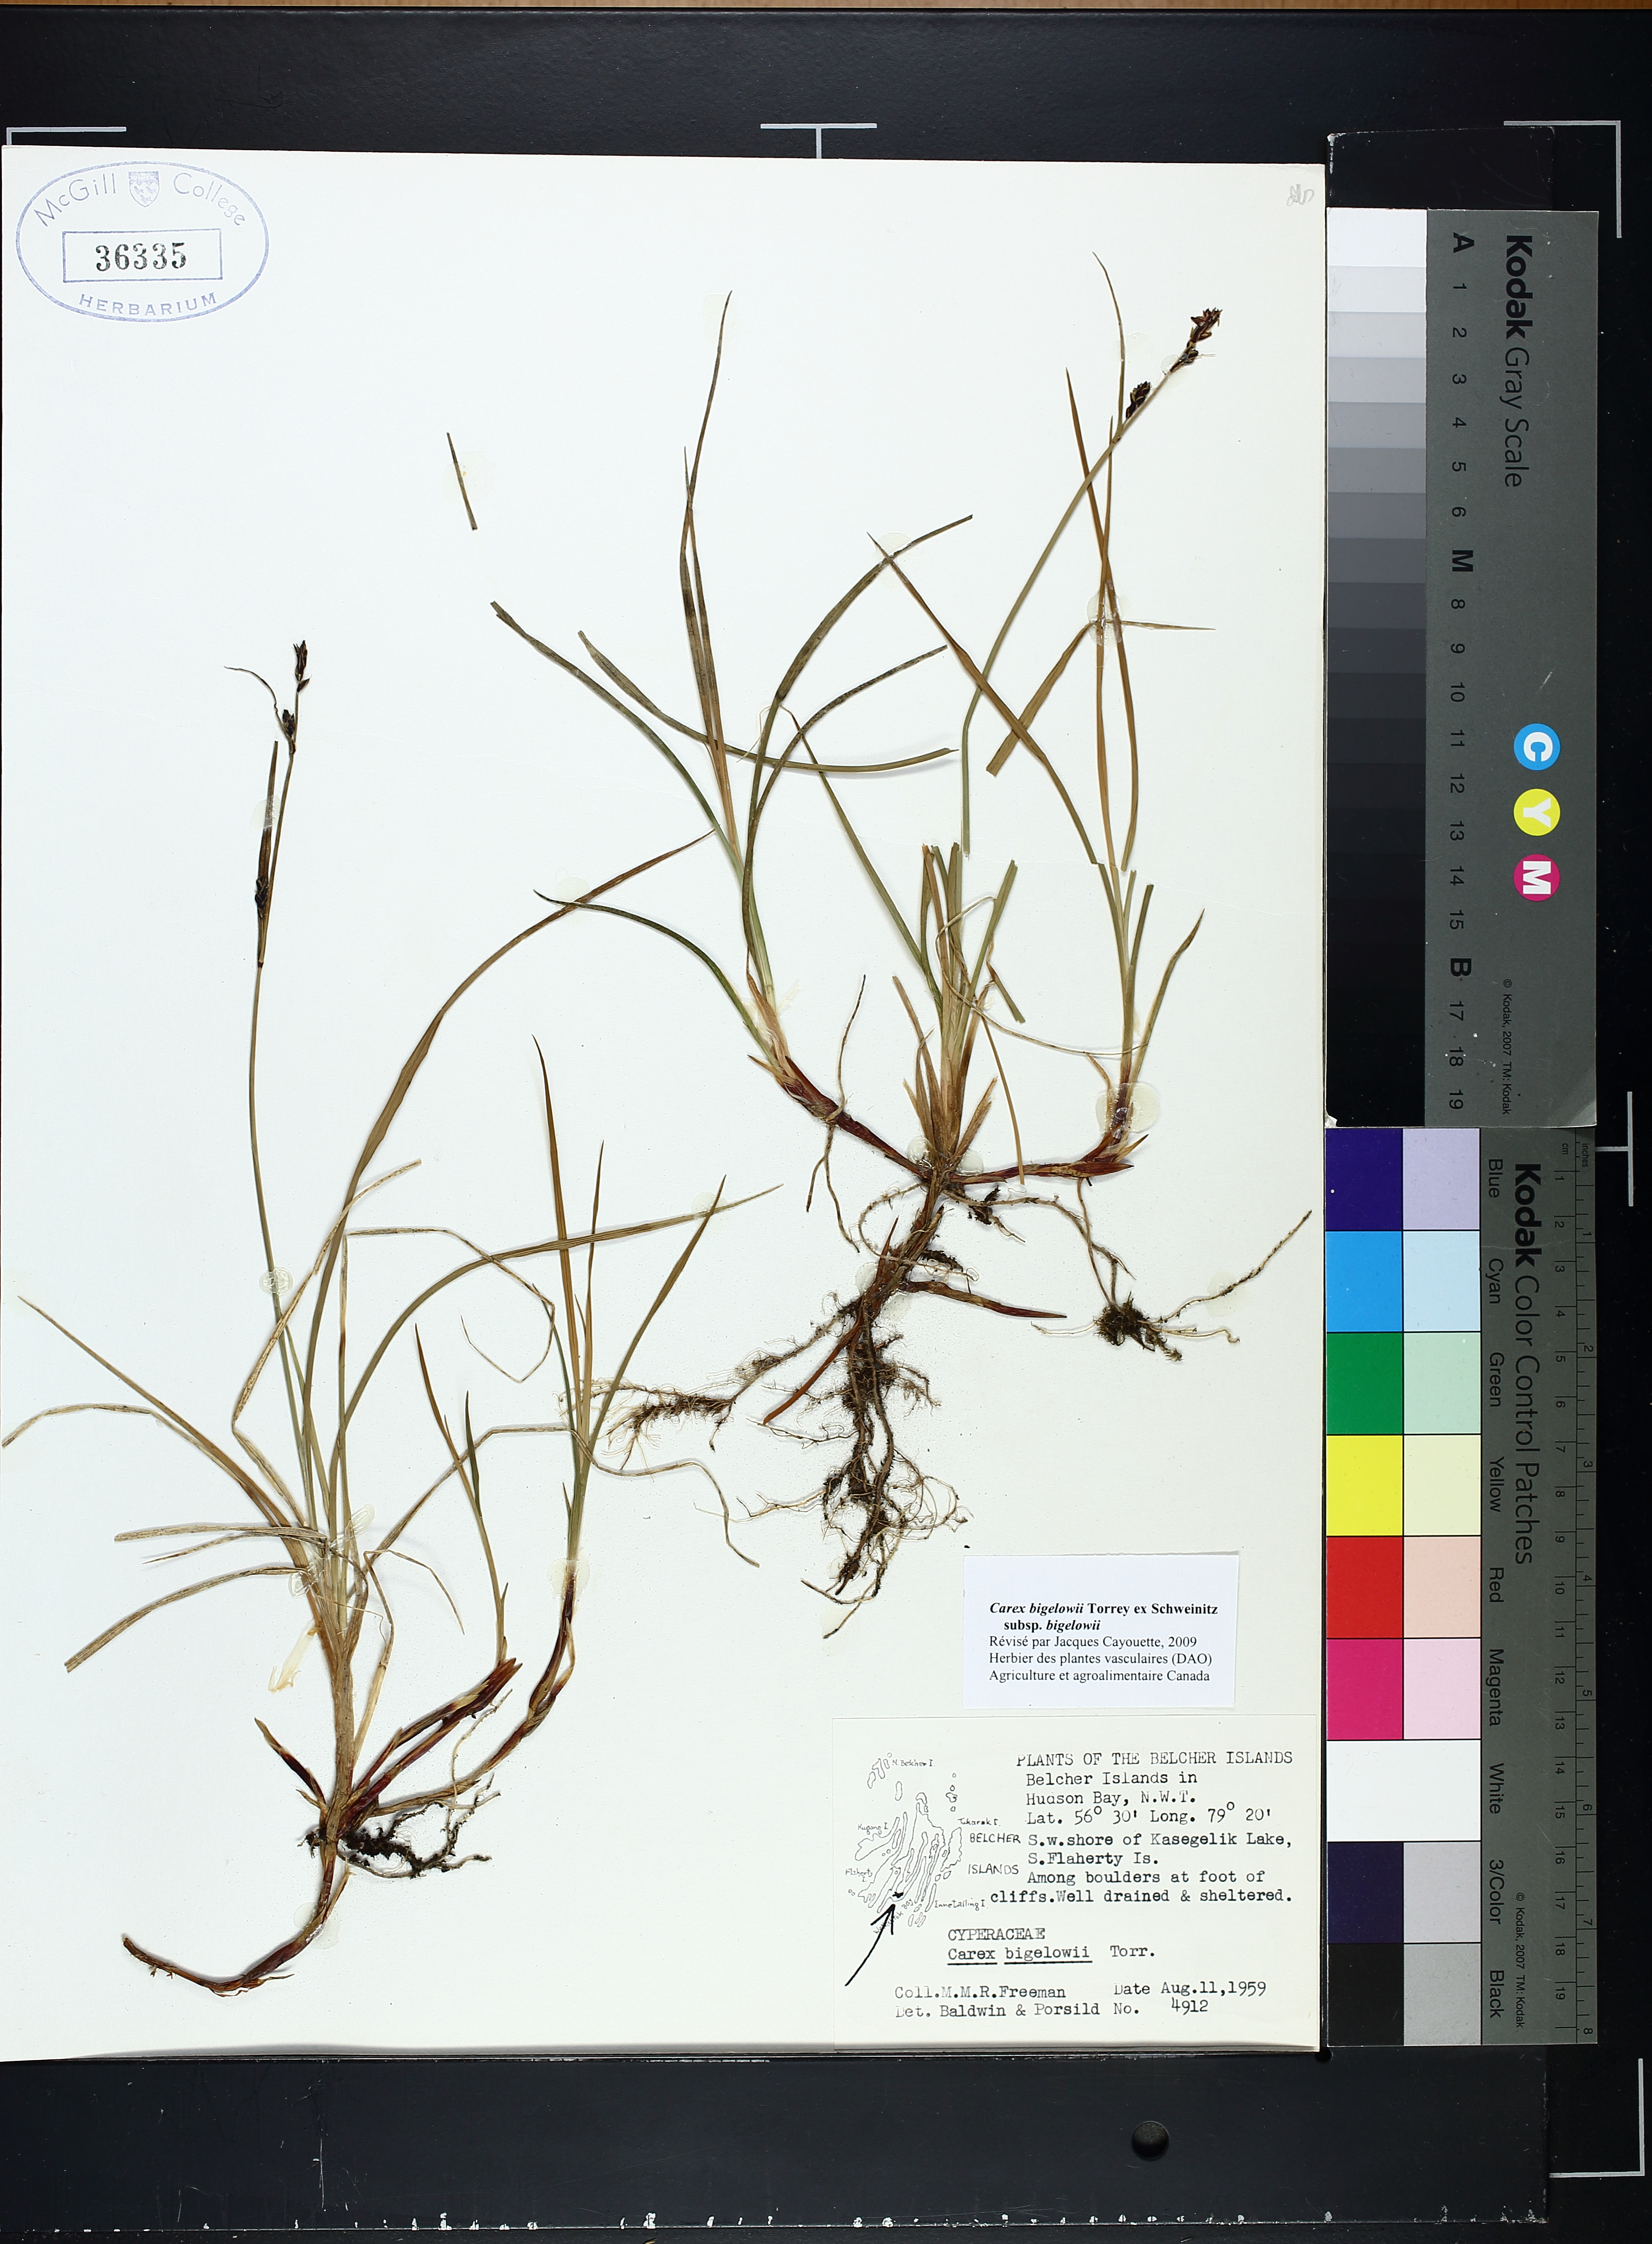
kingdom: Plantae
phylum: Tracheophyta
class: Liliopsida
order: Poales
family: Cyperaceae
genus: Carex
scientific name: Carex bigelowii
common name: Stiff sedge
